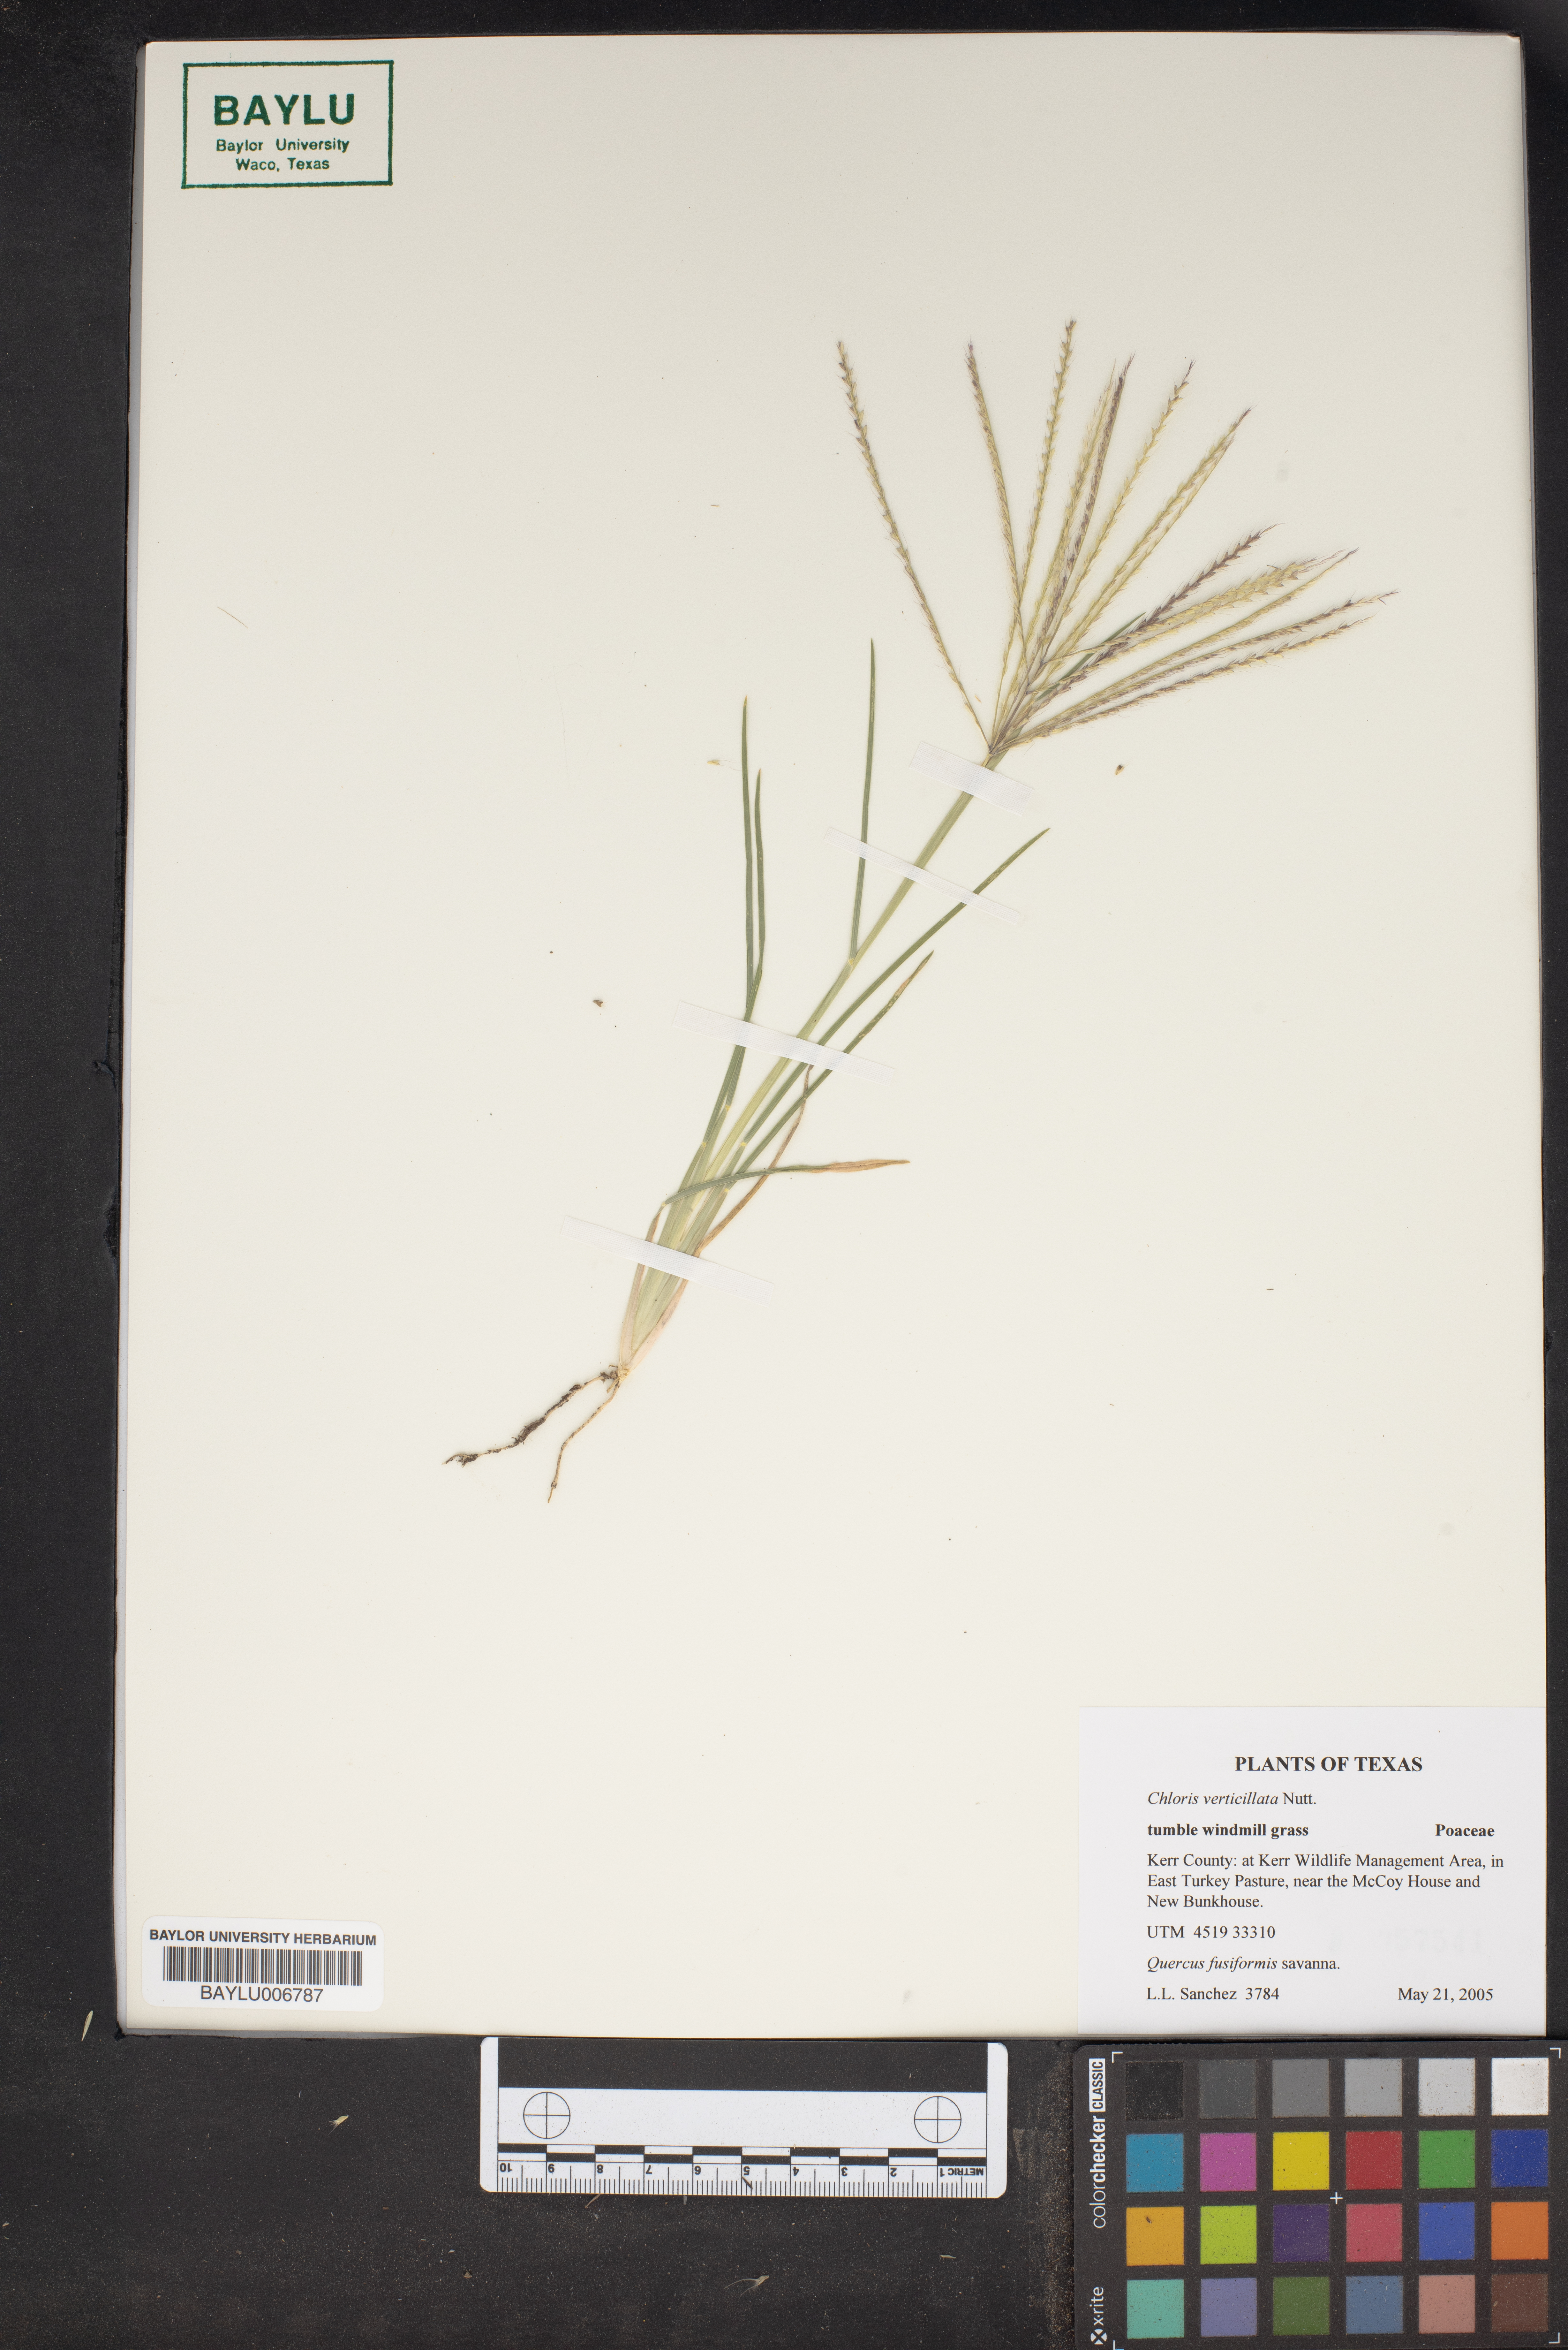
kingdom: Plantae
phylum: Tracheophyta
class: Liliopsida
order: Poales
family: Poaceae
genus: Chloris
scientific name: Chloris verticillata
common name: Tumble windmill grass
